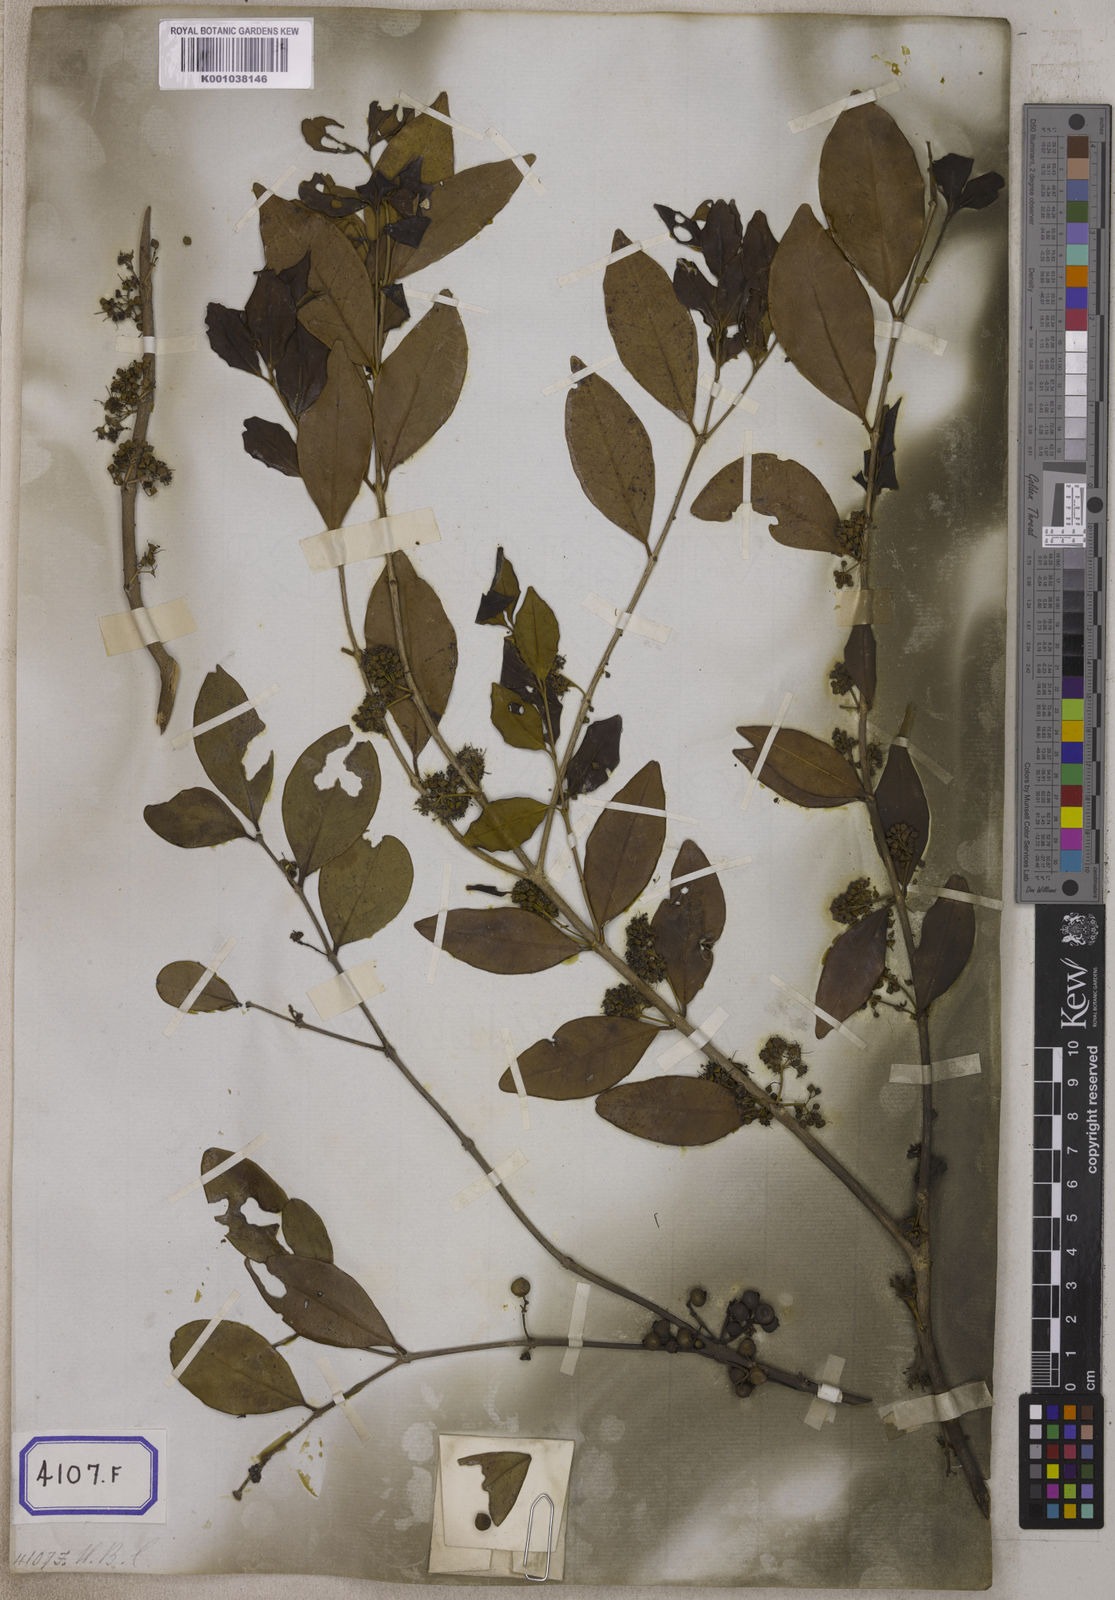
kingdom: Plantae
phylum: Tracheophyta
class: Magnoliopsida
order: Myrtales
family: Melastomataceae
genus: Memecylon
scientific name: Memecylon edule
